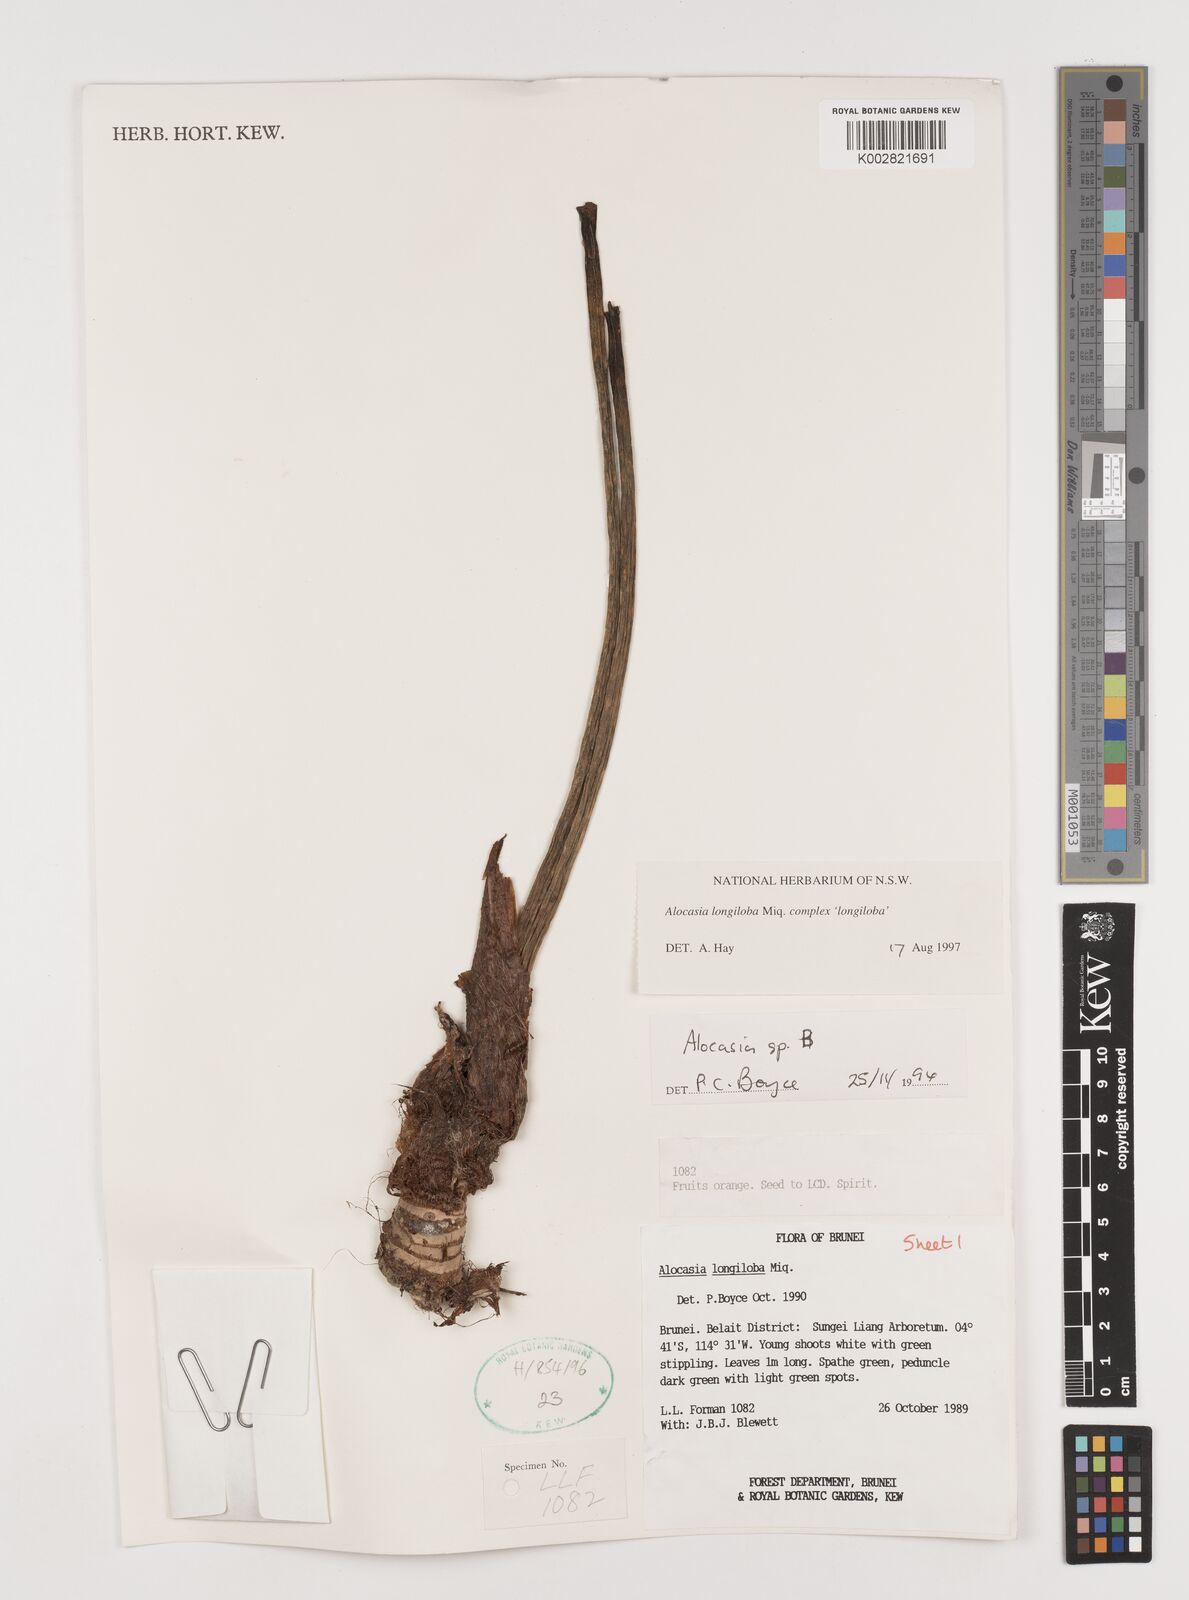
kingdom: Plantae
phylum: Tracheophyta
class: Liliopsida
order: Alismatales
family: Araceae
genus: Alocasia
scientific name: Alocasia longiloba
